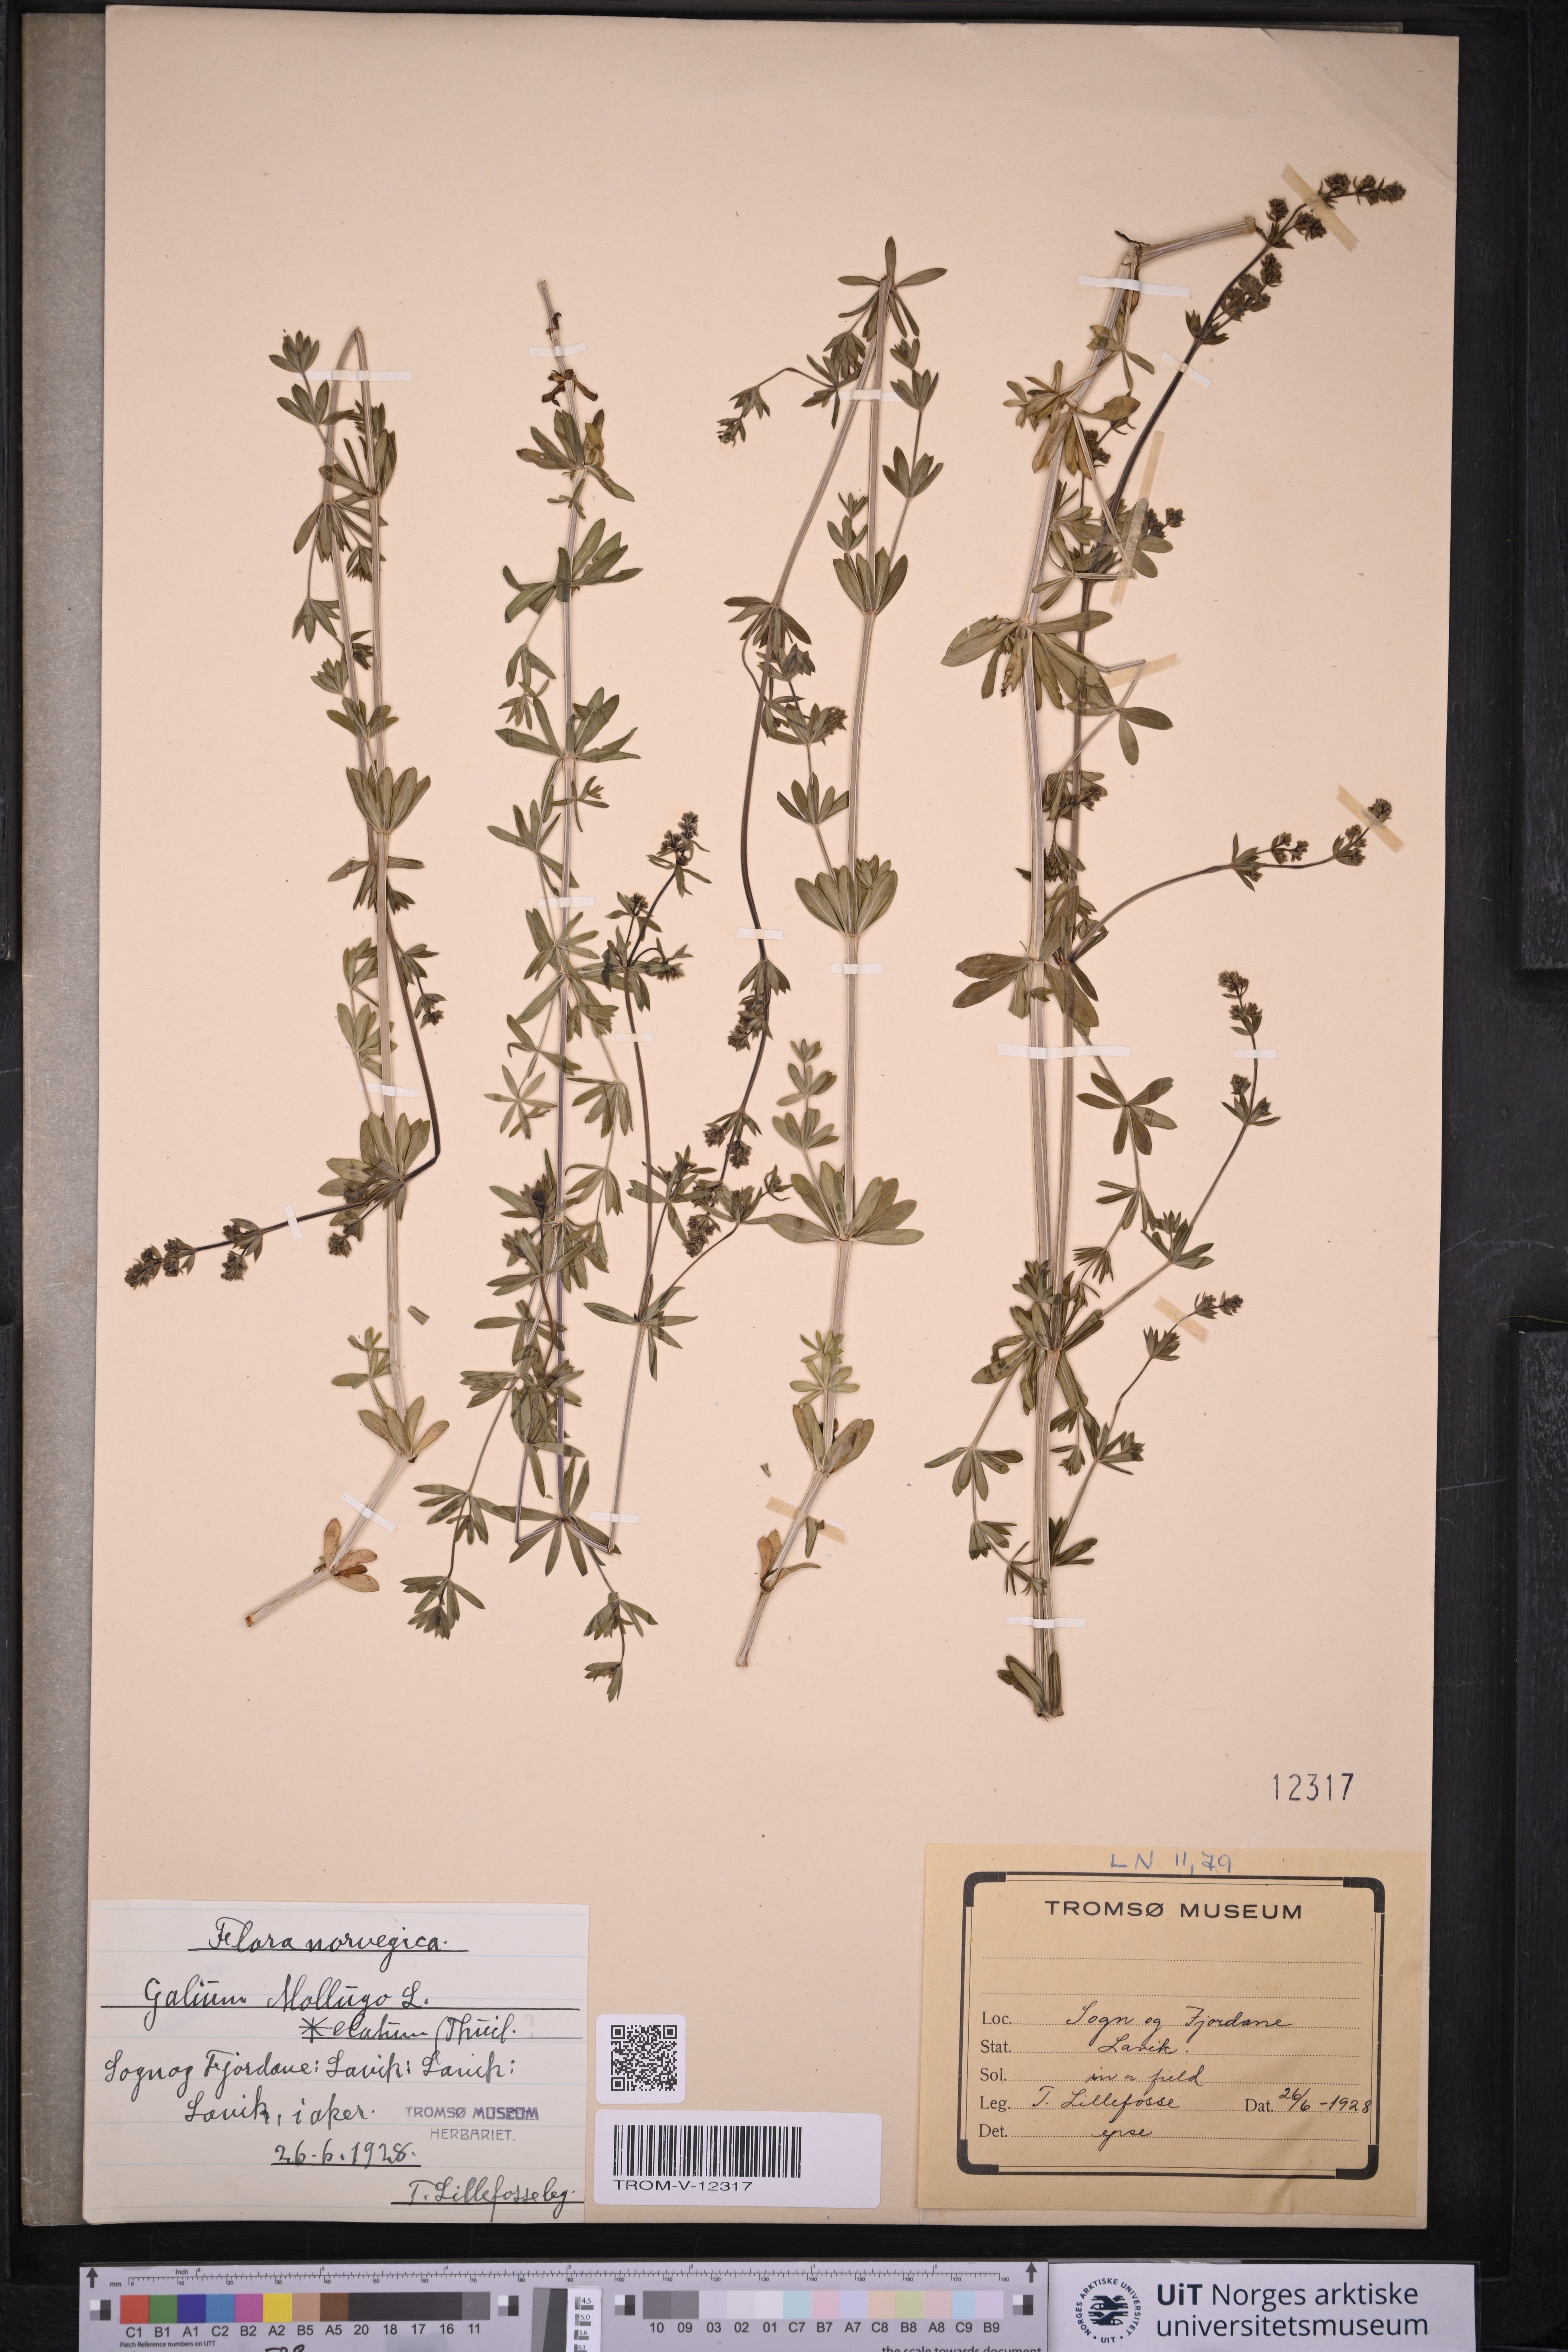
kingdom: Plantae
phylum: Tracheophyta
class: Magnoliopsida
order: Gentianales
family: Rubiaceae
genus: Galium
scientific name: Galium mollugo
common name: Hedge bedstraw
